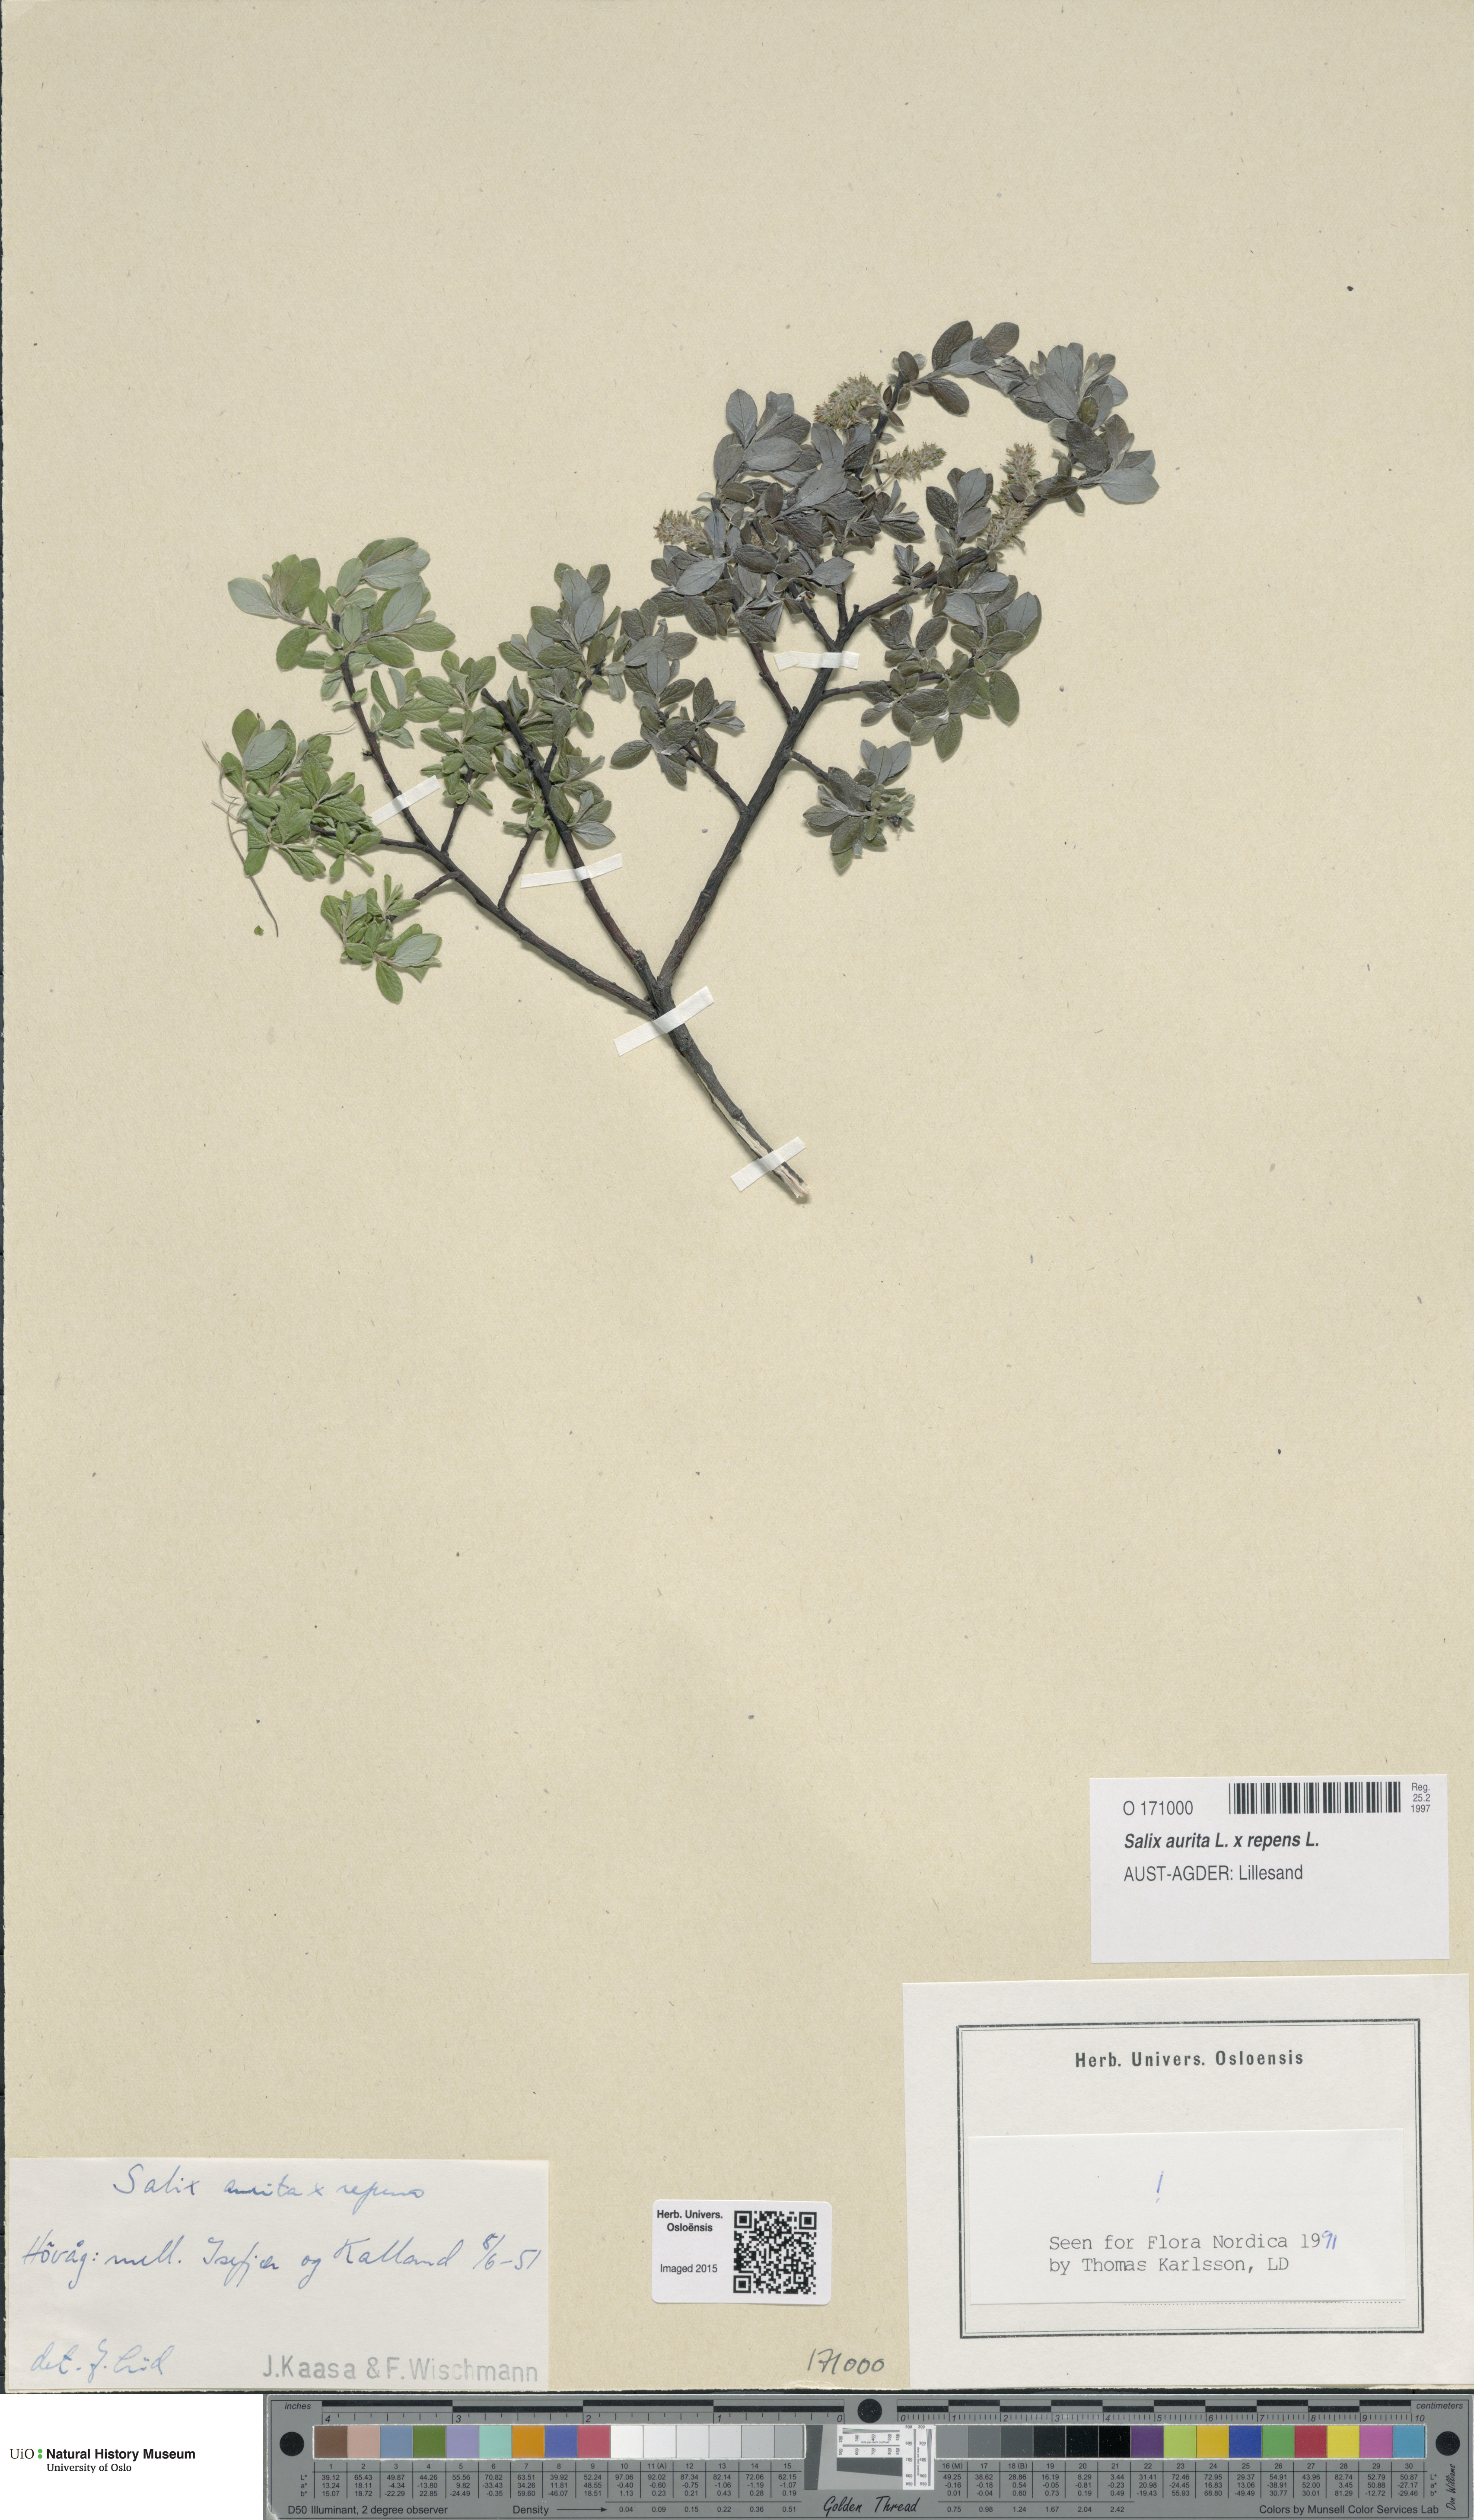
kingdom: Plantae
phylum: Tracheophyta
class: Magnoliopsida
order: Malpighiales
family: Salicaceae
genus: Salix
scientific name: Salix
